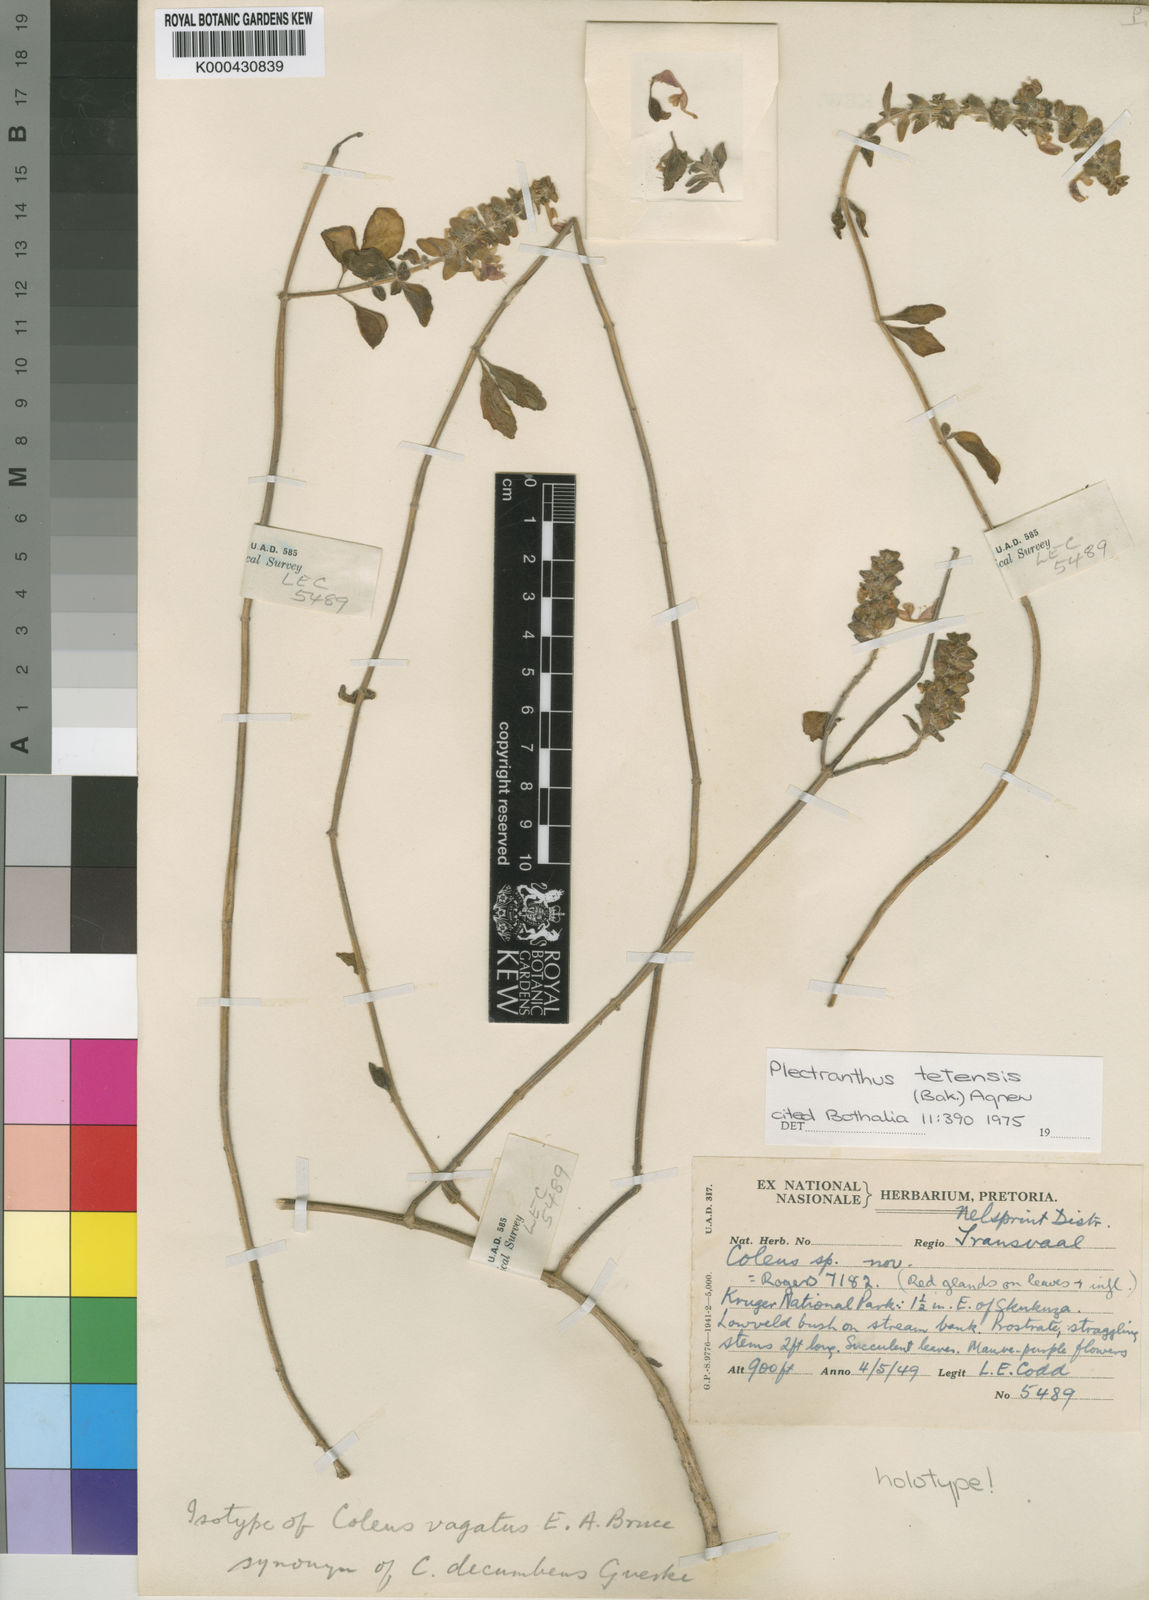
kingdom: Plantae
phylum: Tracheophyta
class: Magnoliopsida
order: Lamiales
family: Lamiaceae
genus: Coleus
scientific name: Coleus lasianthus
